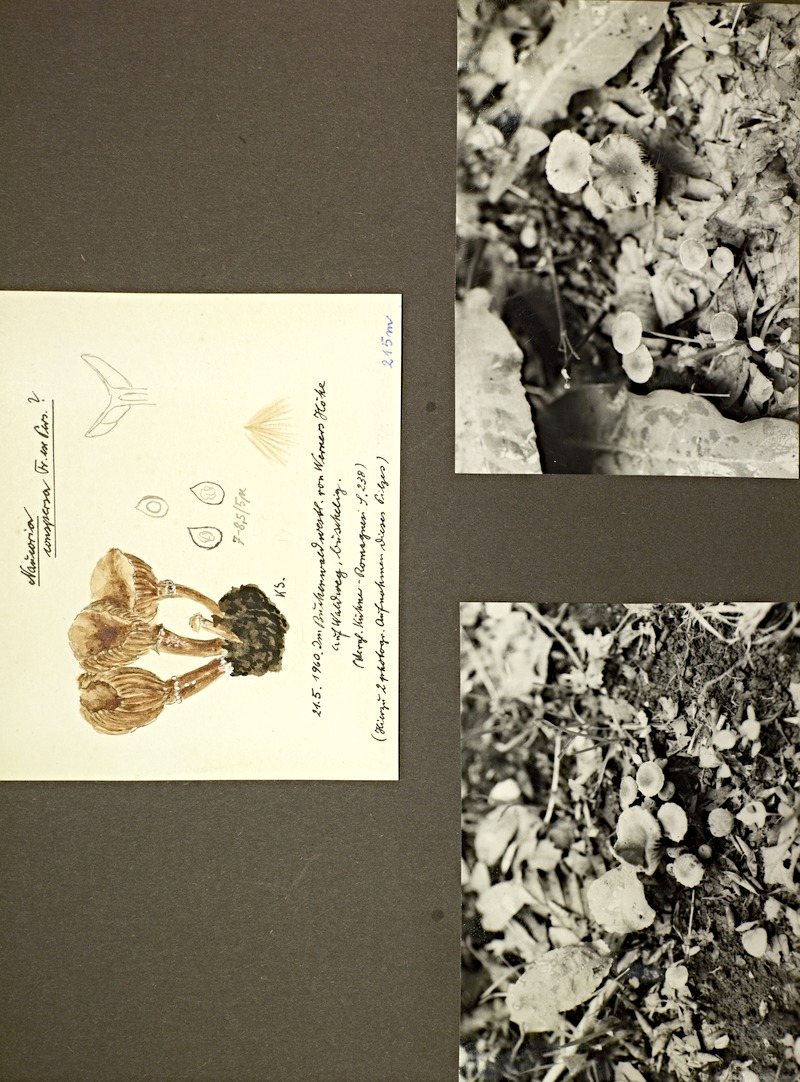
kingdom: Fungi
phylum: Basidiomycota
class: Agaricomycetes
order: Agaricales
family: Tubariaceae
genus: Tubaria
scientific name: Tubaria conspersa
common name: Felted twiglet
